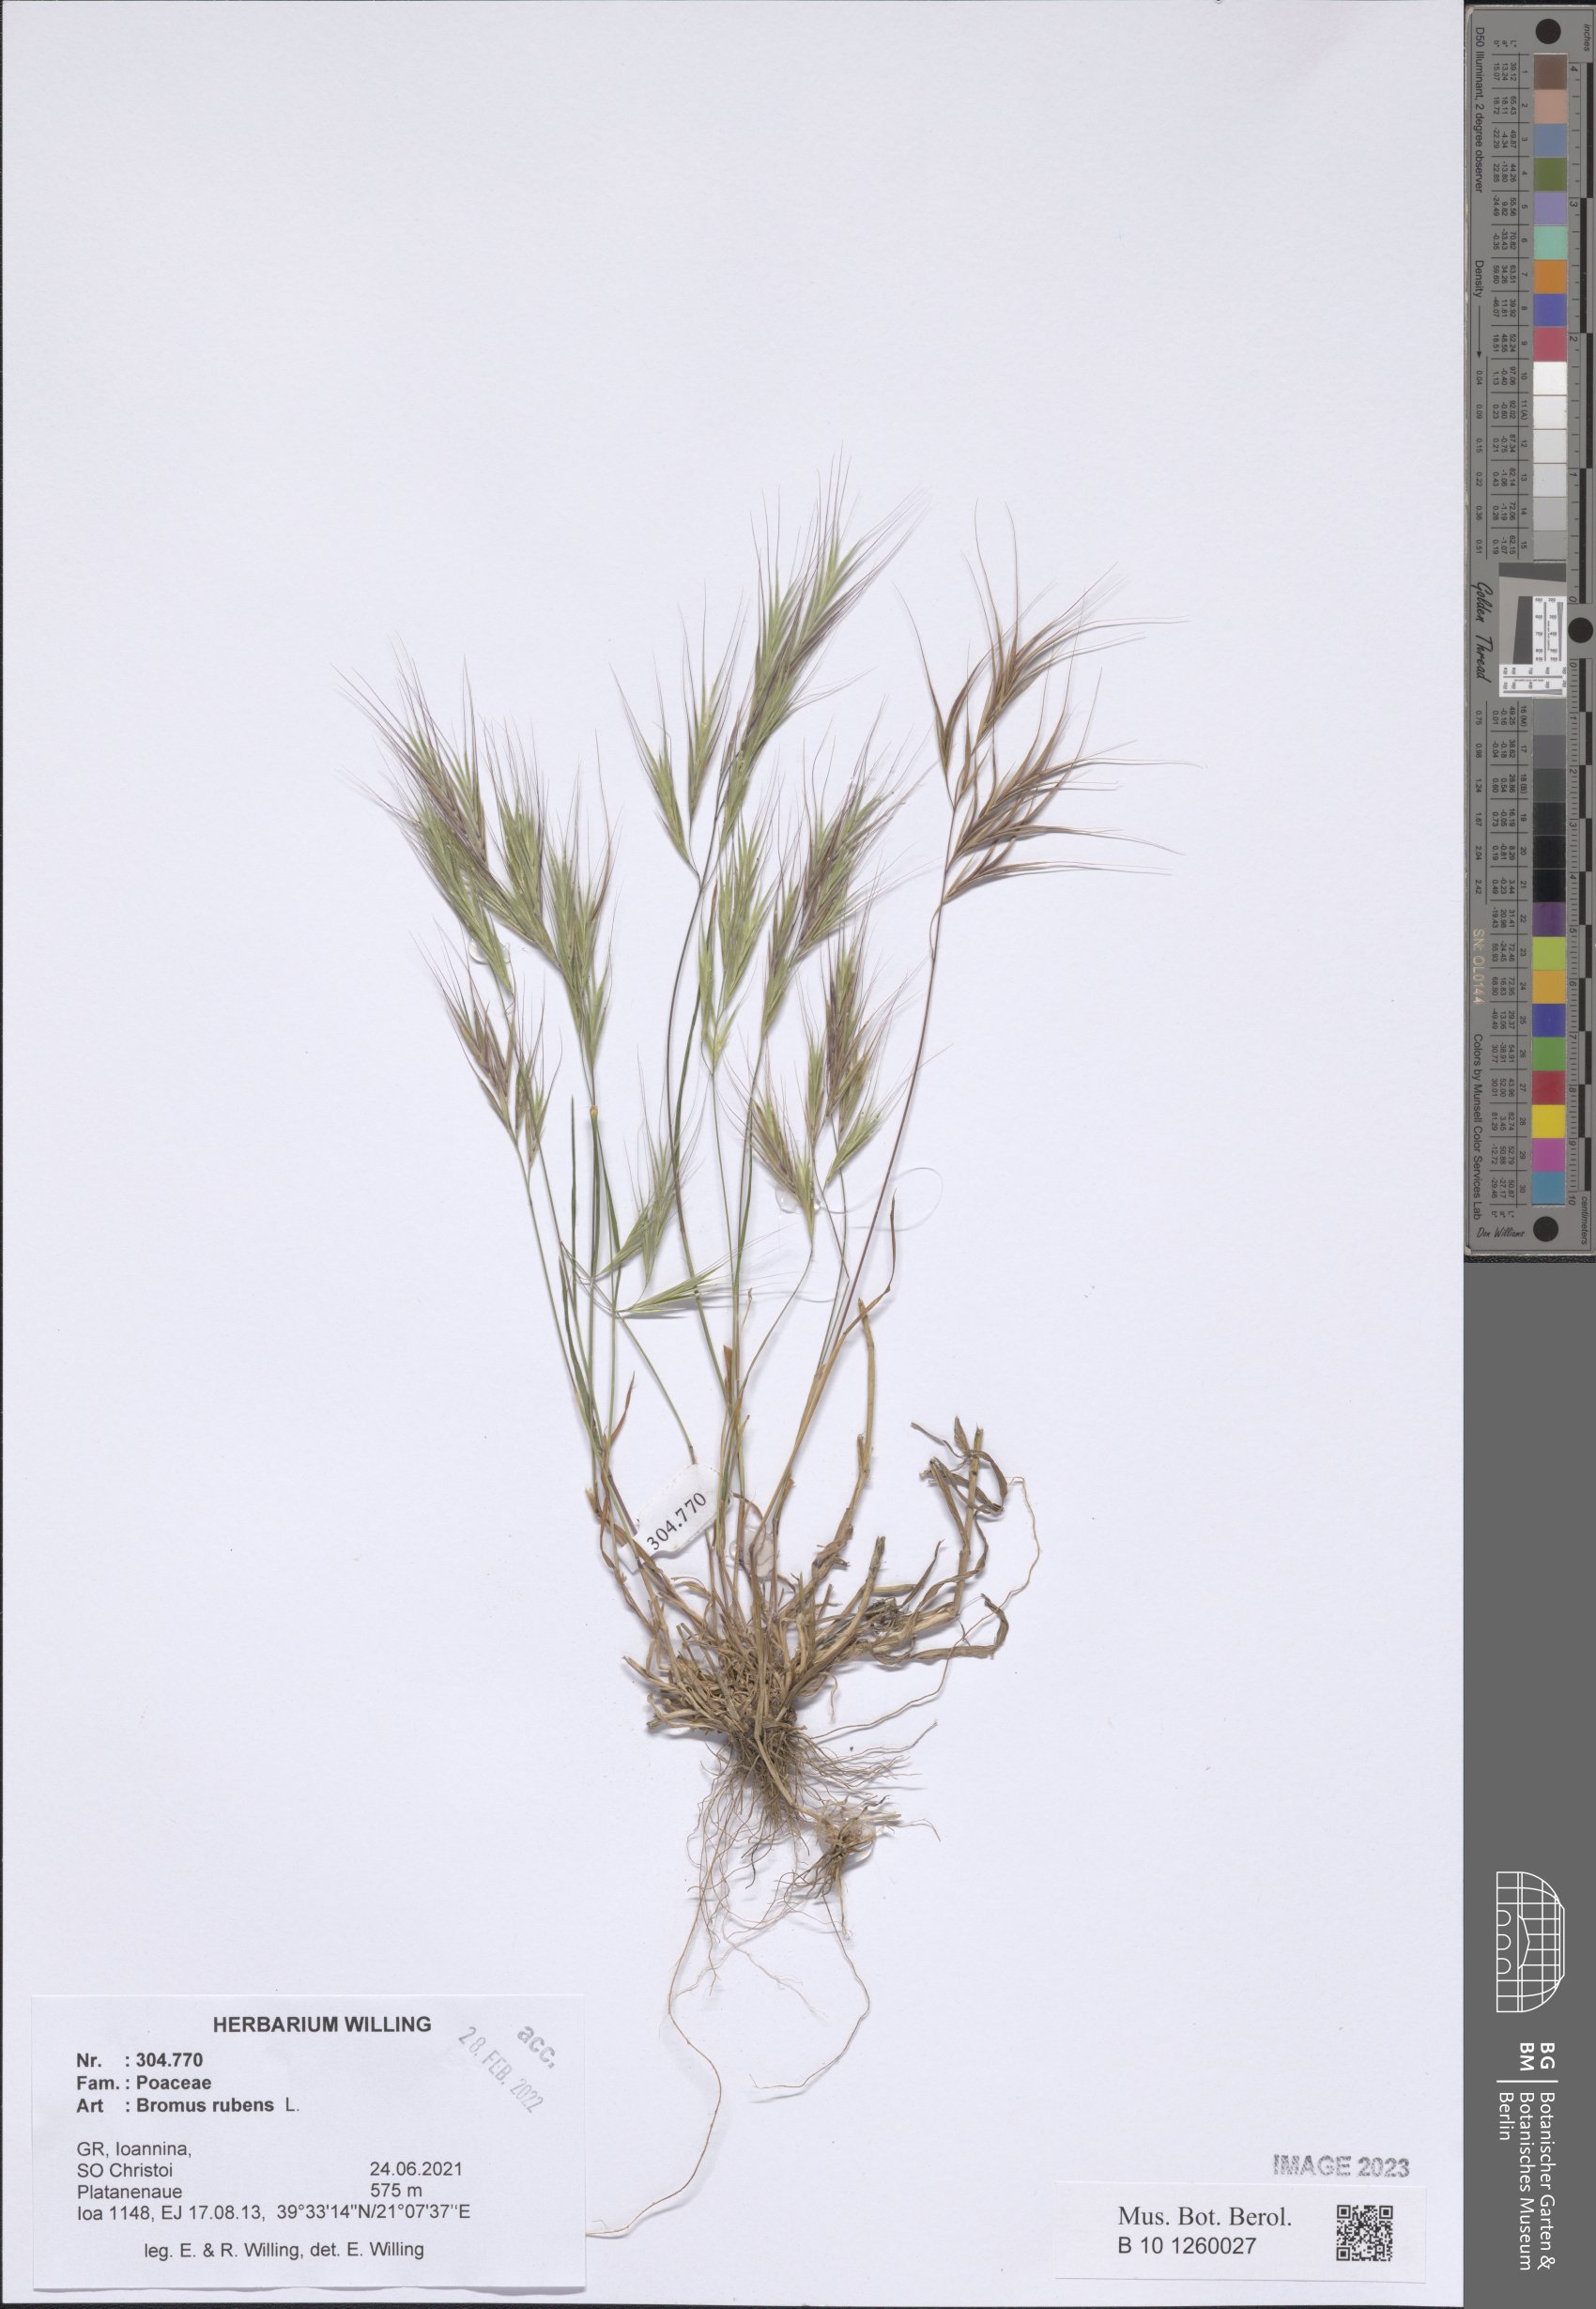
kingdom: Plantae
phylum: Tracheophyta
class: Liliopsida
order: Poales
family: Poaceae
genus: Bromus
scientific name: Bromus rubens
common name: Red brome
